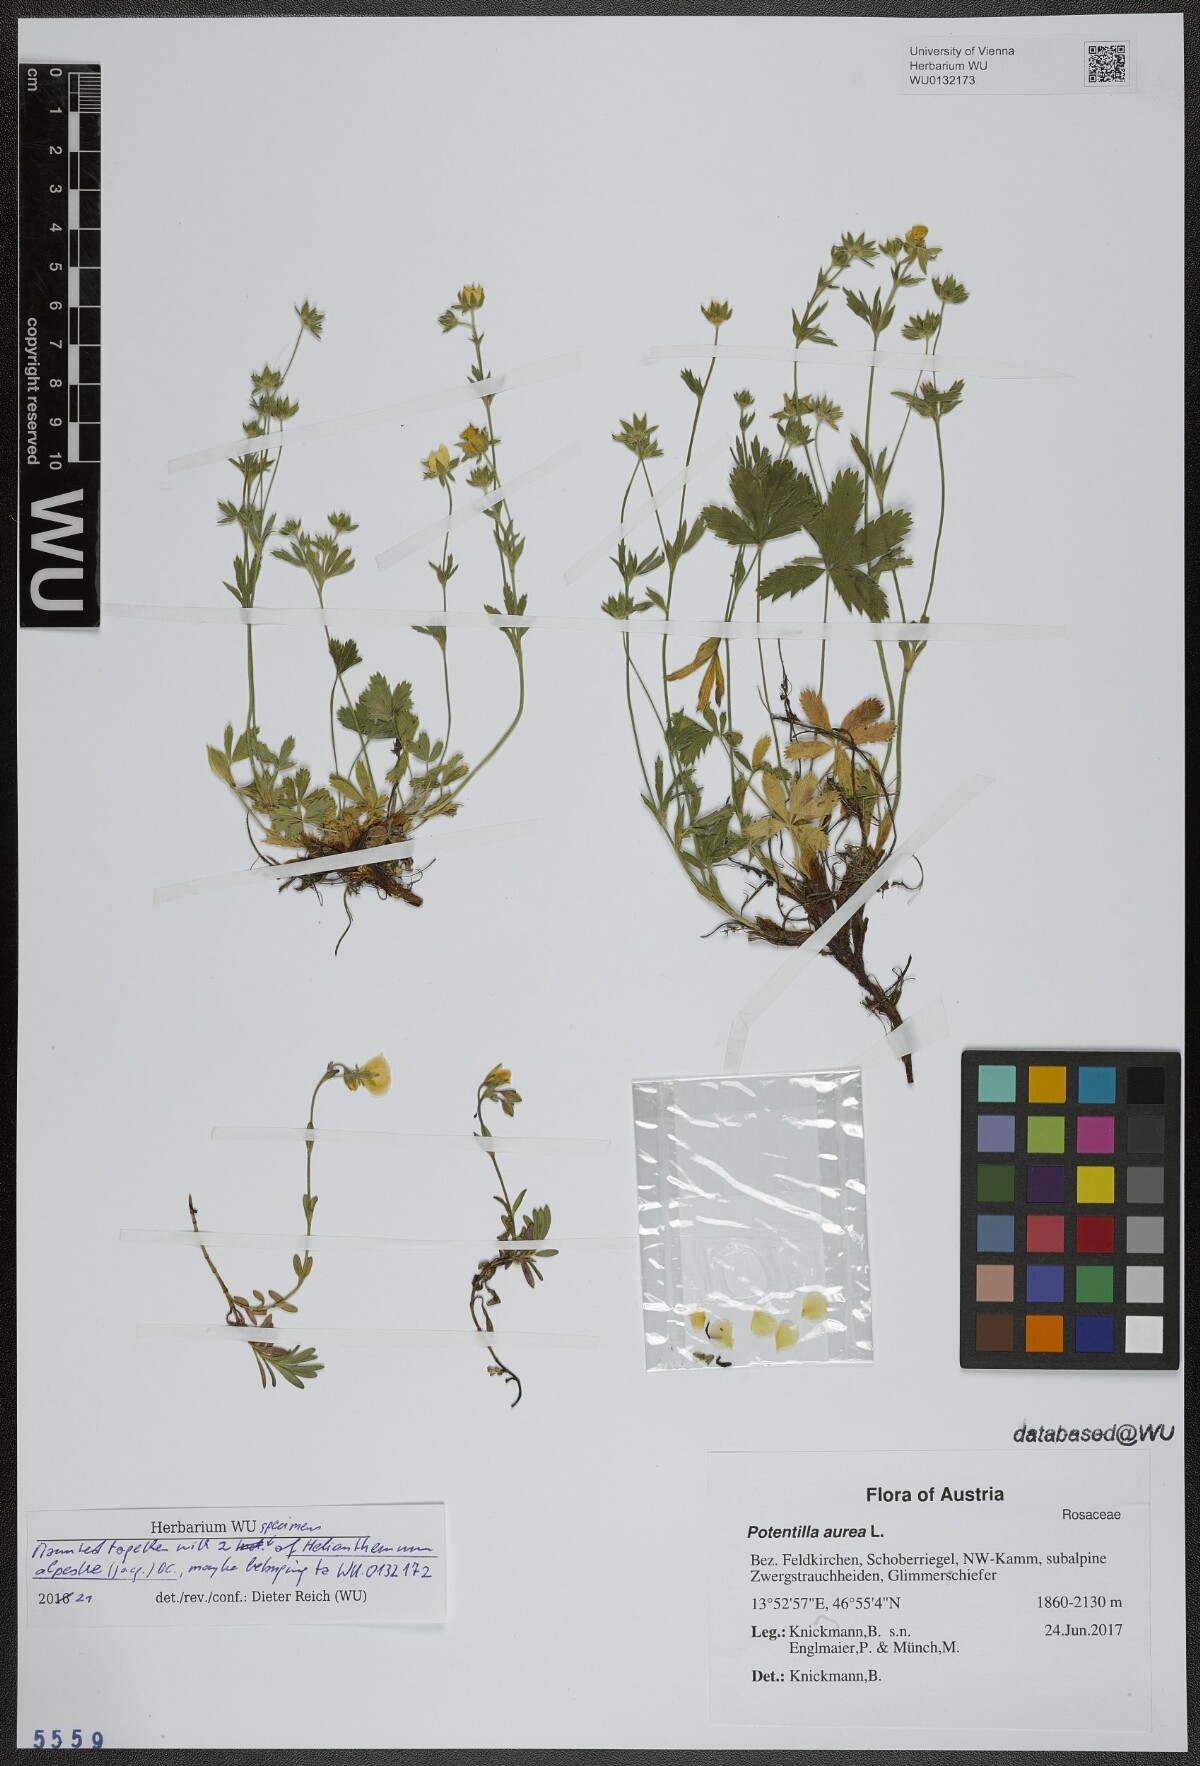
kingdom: Plantae
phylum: Tracheophyta
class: Magnoliopsida
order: Rosales
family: Rosaceae
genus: Potentilla
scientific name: Potentilla aurea
